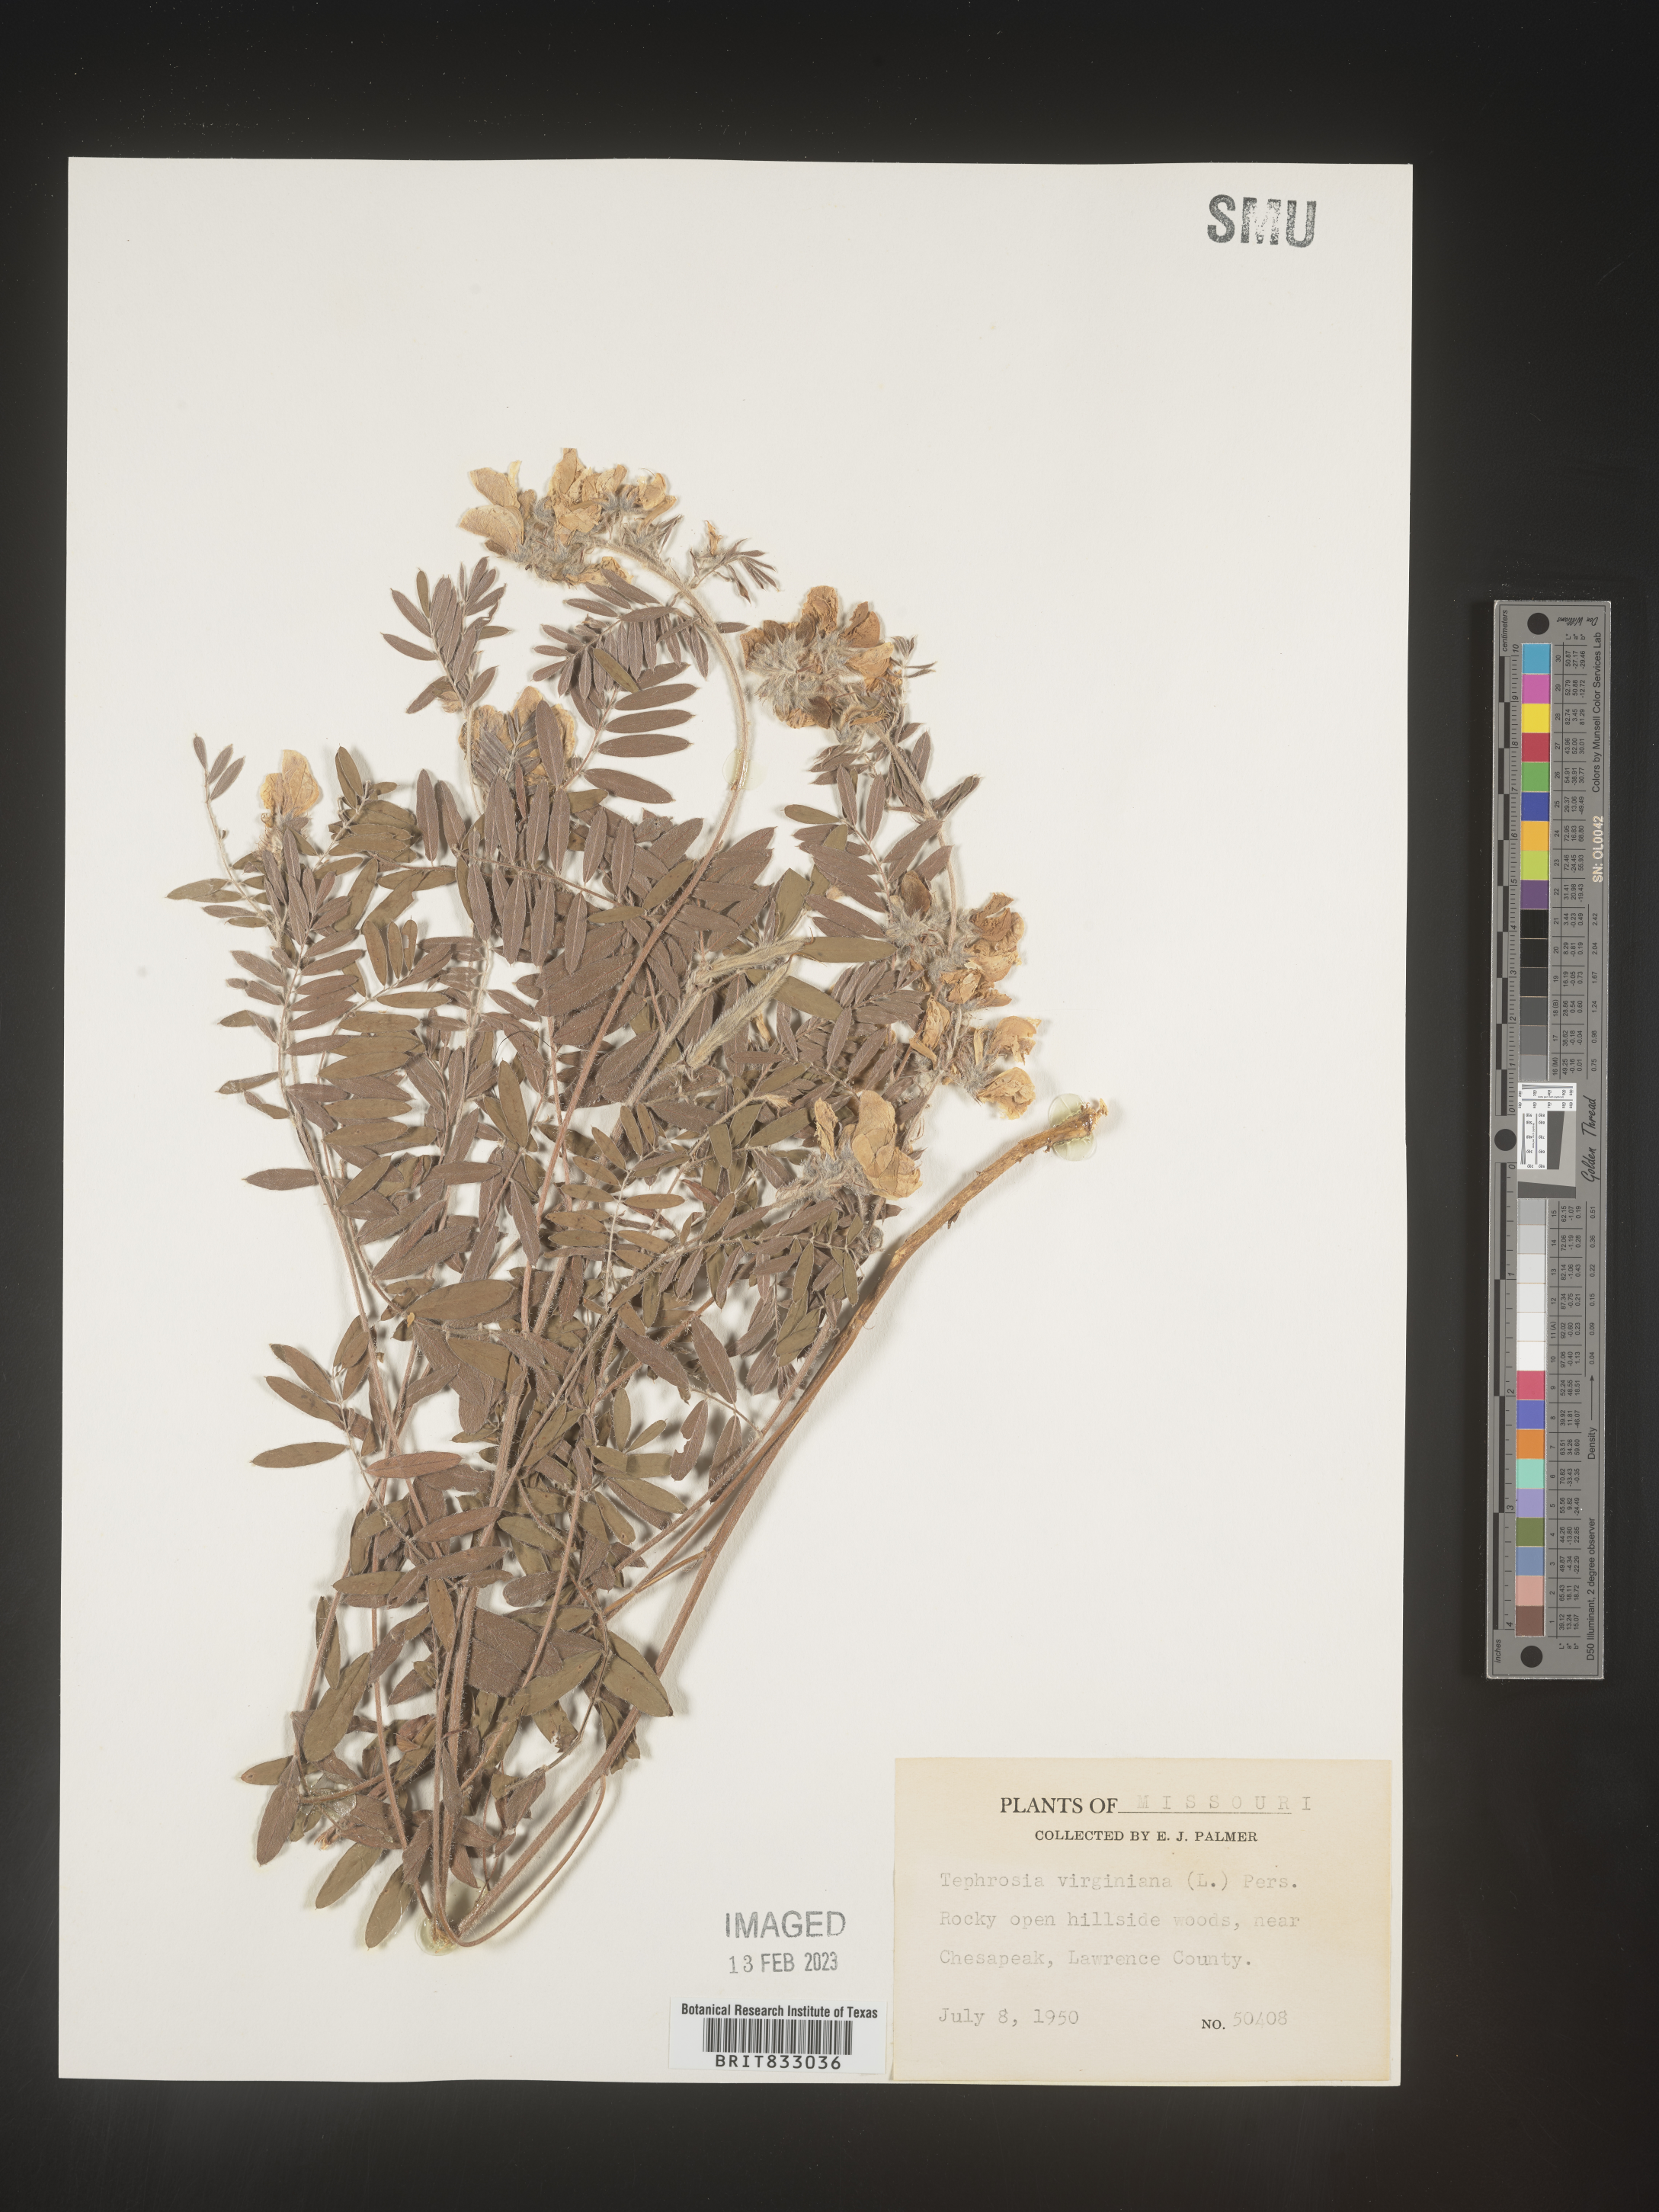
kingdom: Plantae
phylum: Tracheophyta
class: Magnoliopsida
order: Fabales
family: Fabaceae
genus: Tephrosia
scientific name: Tephrosia virginiana
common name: Rabbit-pea
